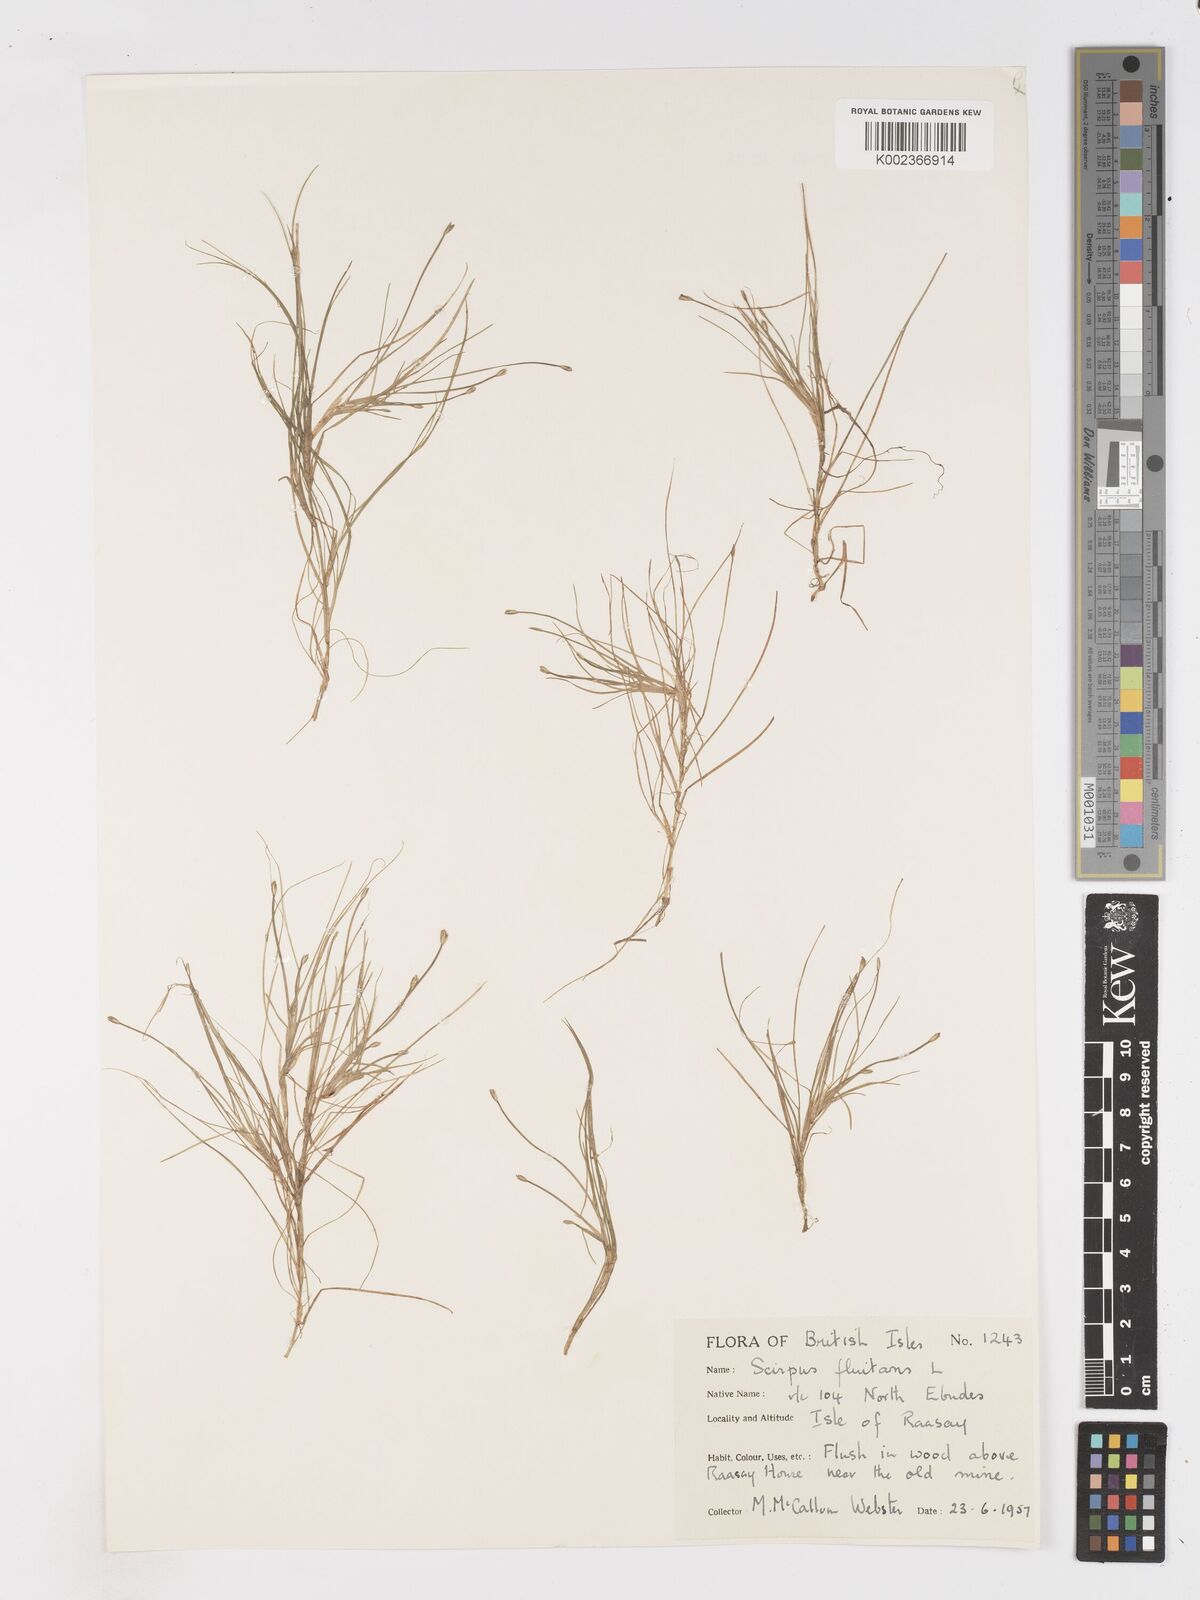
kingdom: Plantae
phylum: Tracheophyta
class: Liliopsida
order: Poales
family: Cyperaceae
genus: Isolepis
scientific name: Isolepis fluitans
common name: Floating club-rush
